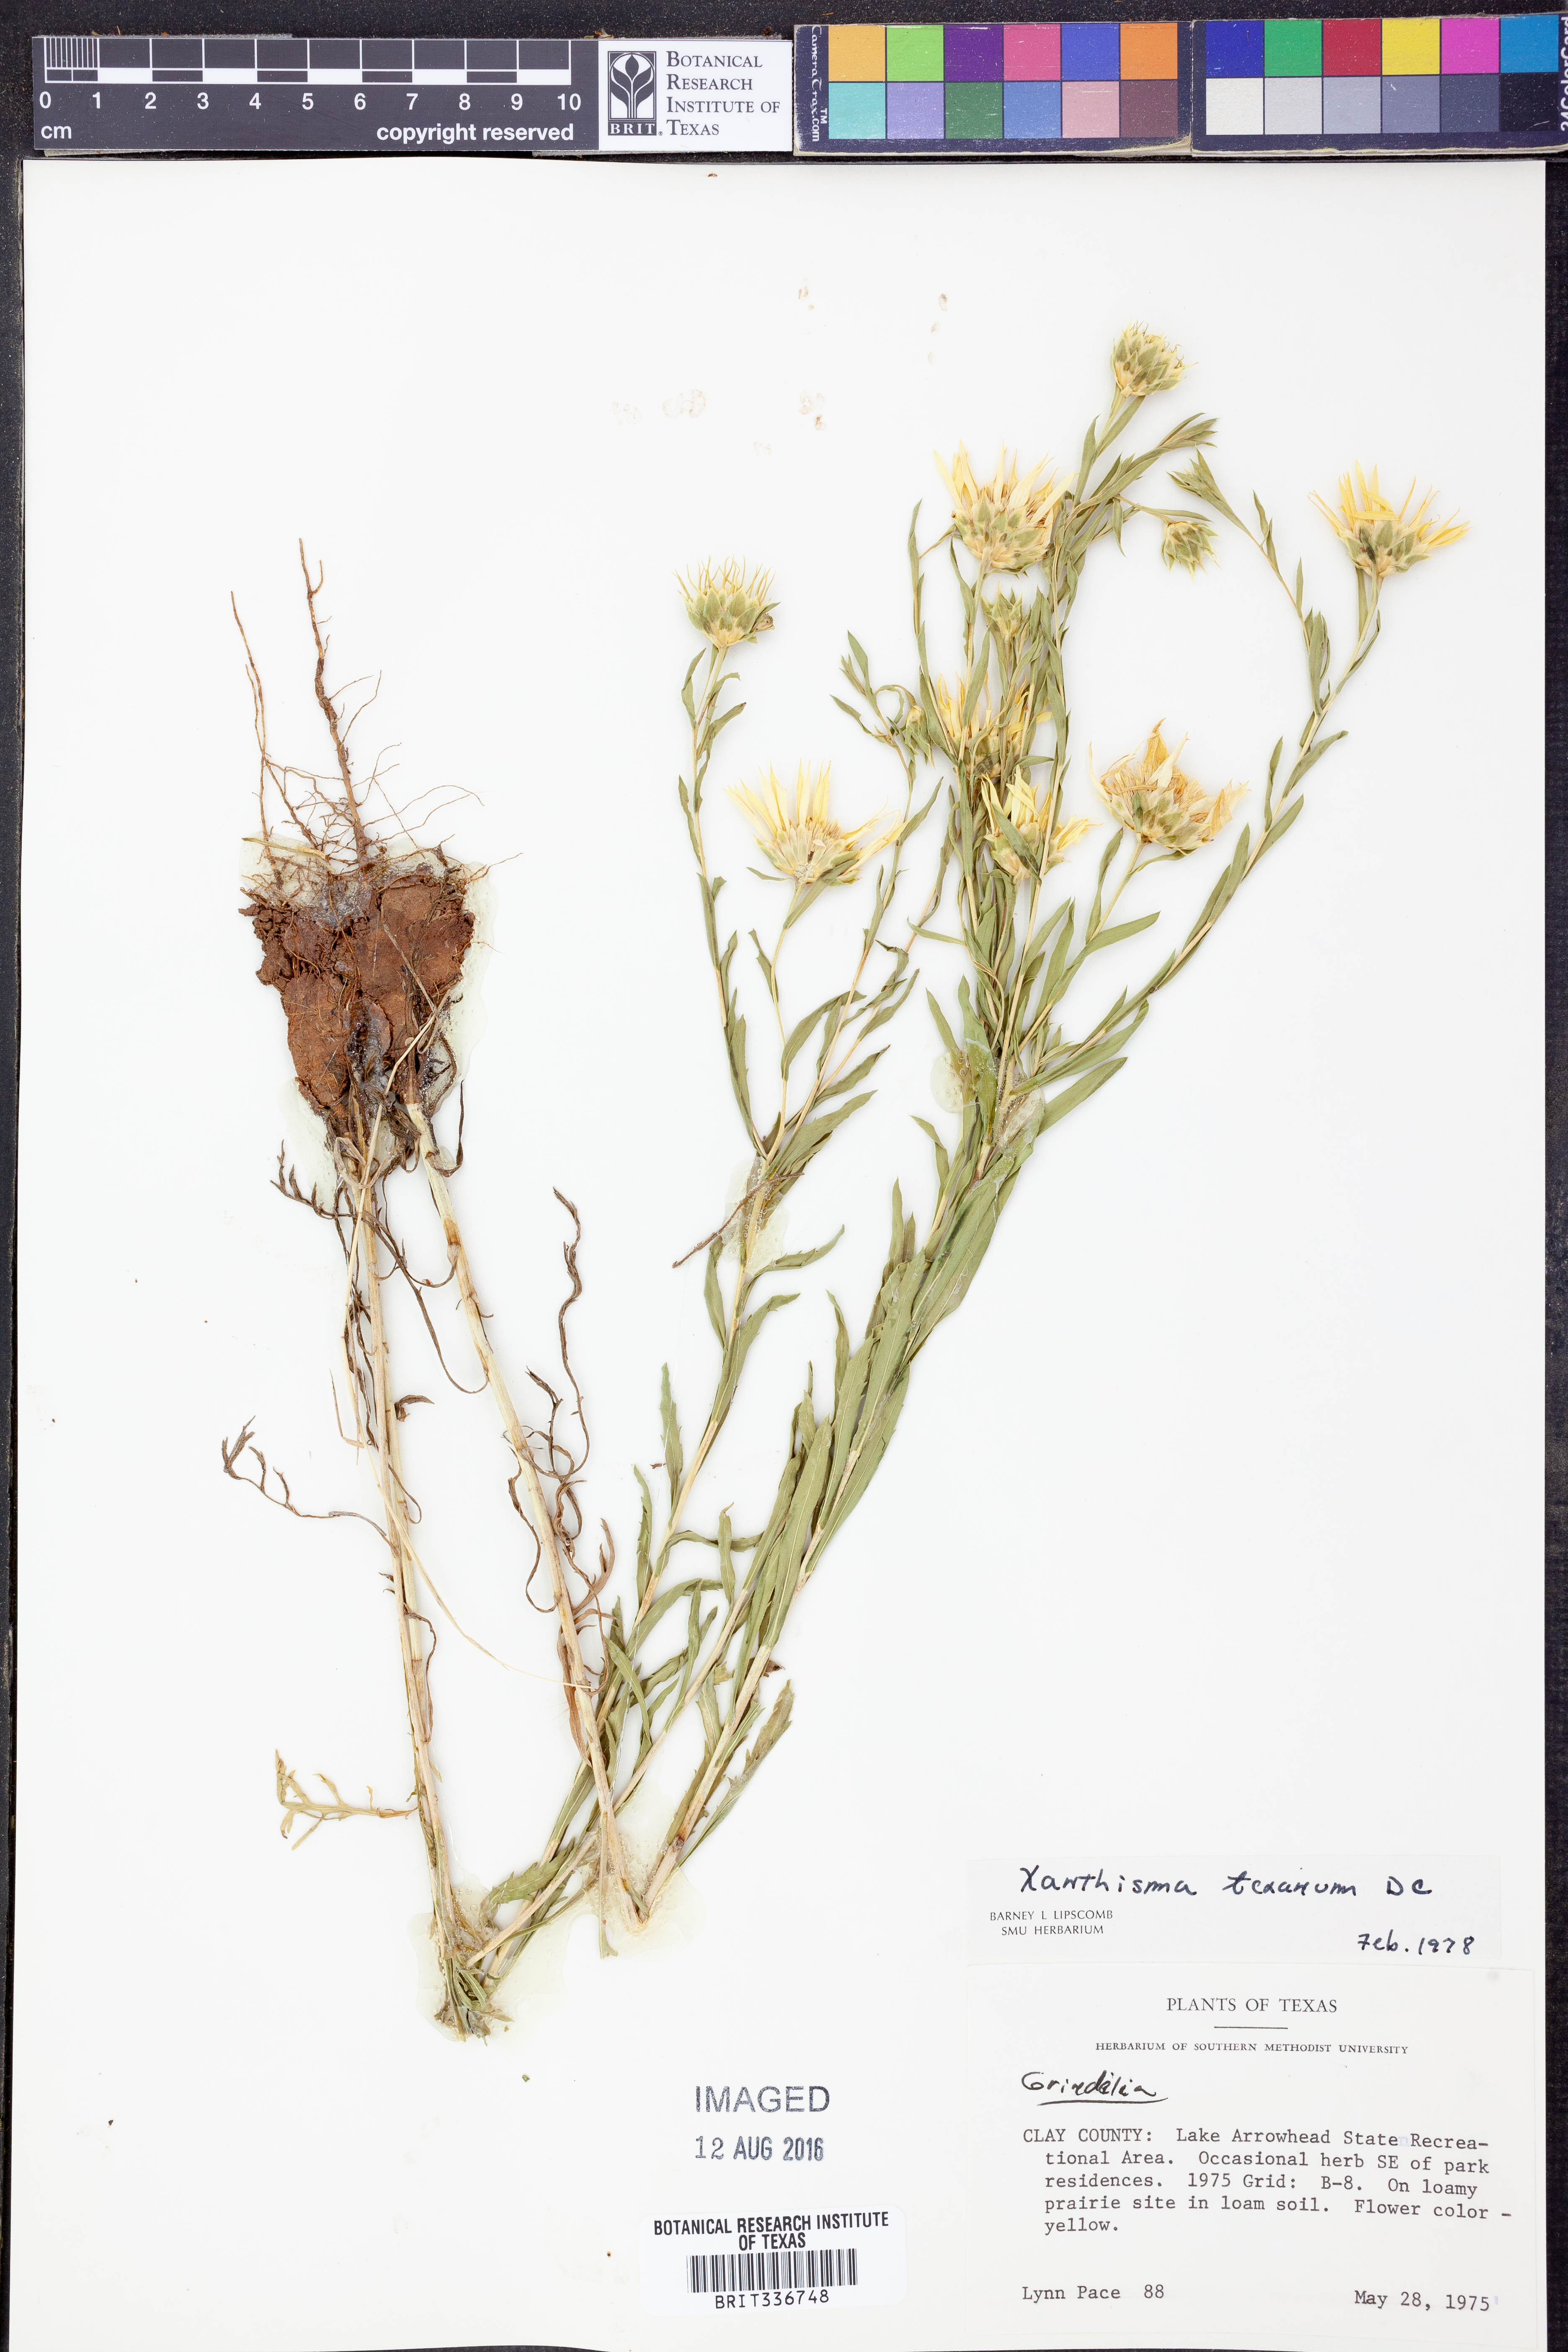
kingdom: Plantae
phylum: Tracheophyta
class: Magnoliopsida
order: Asterales
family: Asteraceae
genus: Xanthisma
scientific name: Xanthisma texanum
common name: Texas sleepy daisy
